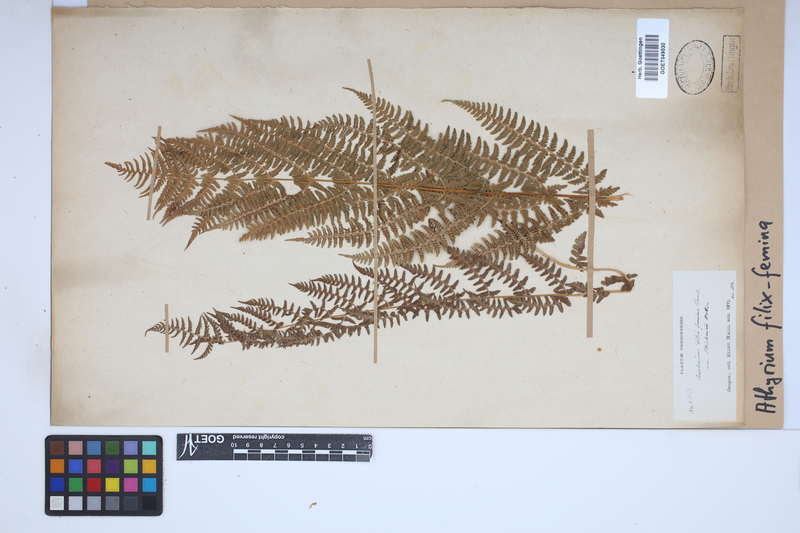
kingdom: Plantae
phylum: Tracheophyta
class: Polypodiopsida
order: Polypodiales
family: Athyriaceae
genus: Athyrium
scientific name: Athyrium filix-femina
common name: Lady fern
